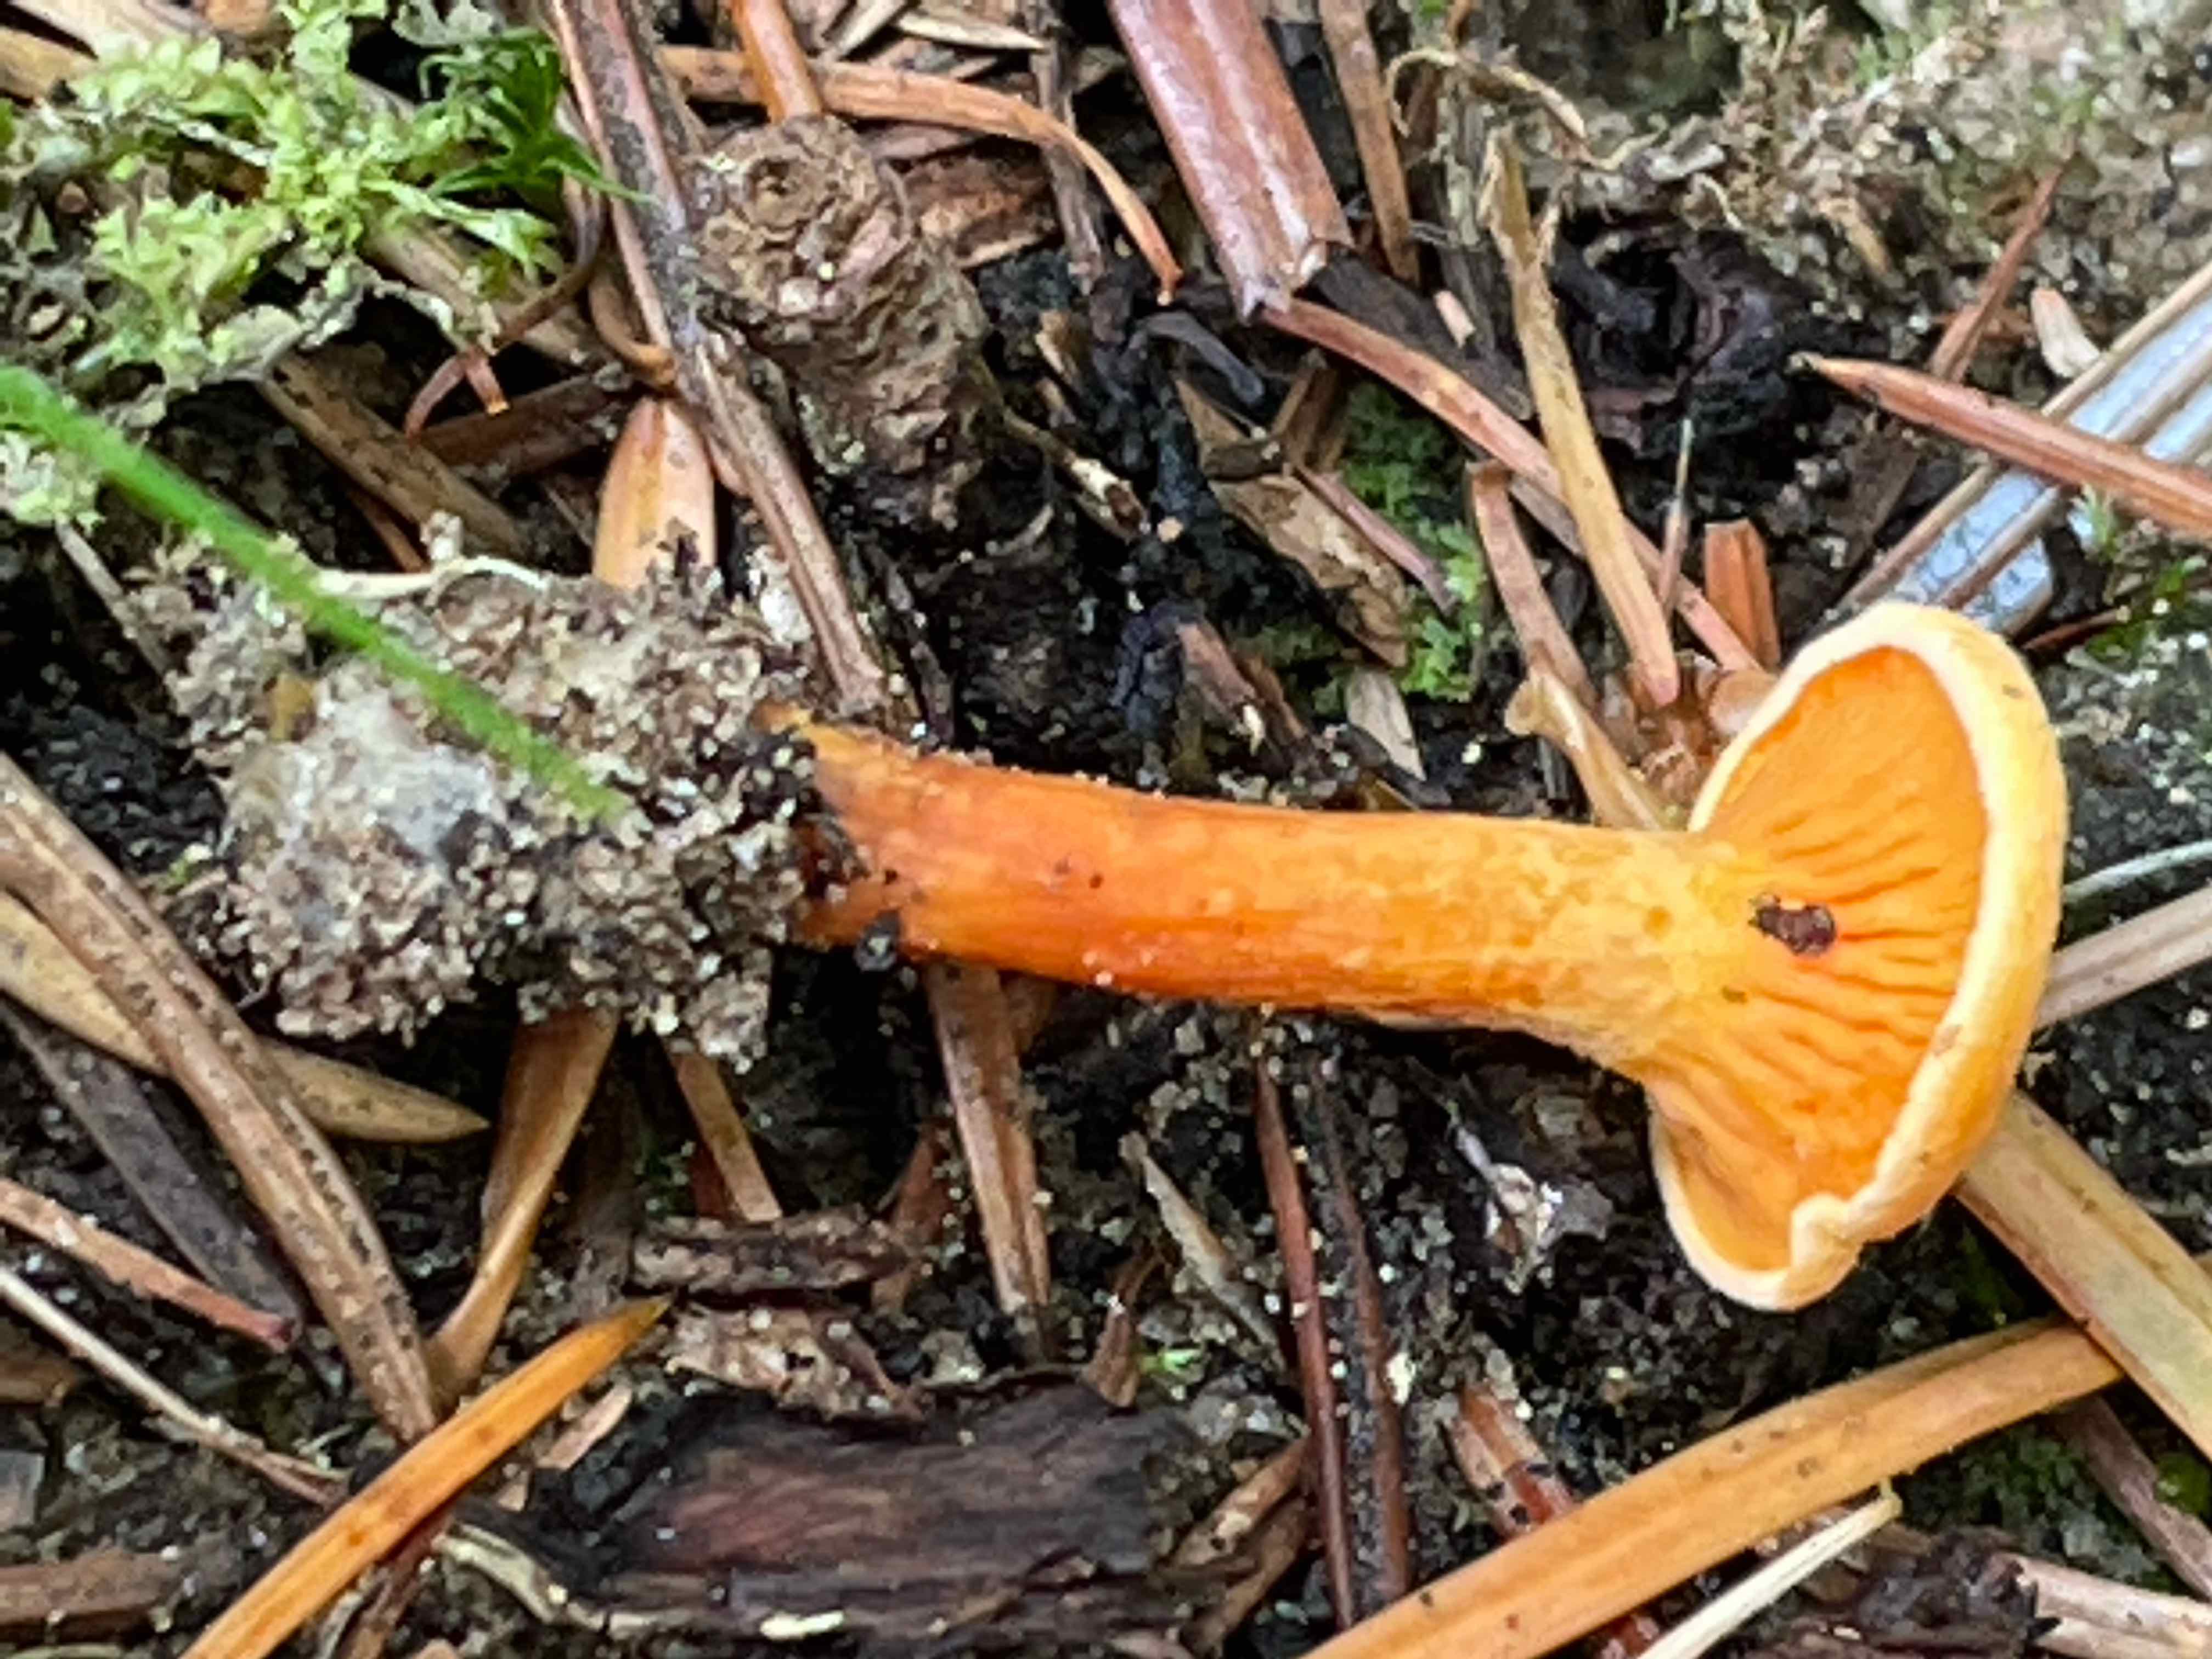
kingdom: Fungi
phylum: Basidiomycota
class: Agaricomycetes
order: Boletales
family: Hygrophoropsidaceae
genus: Hygrophoropsis
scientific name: Hygrophoropsis aurantiaca
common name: almindelig orangekantarel
